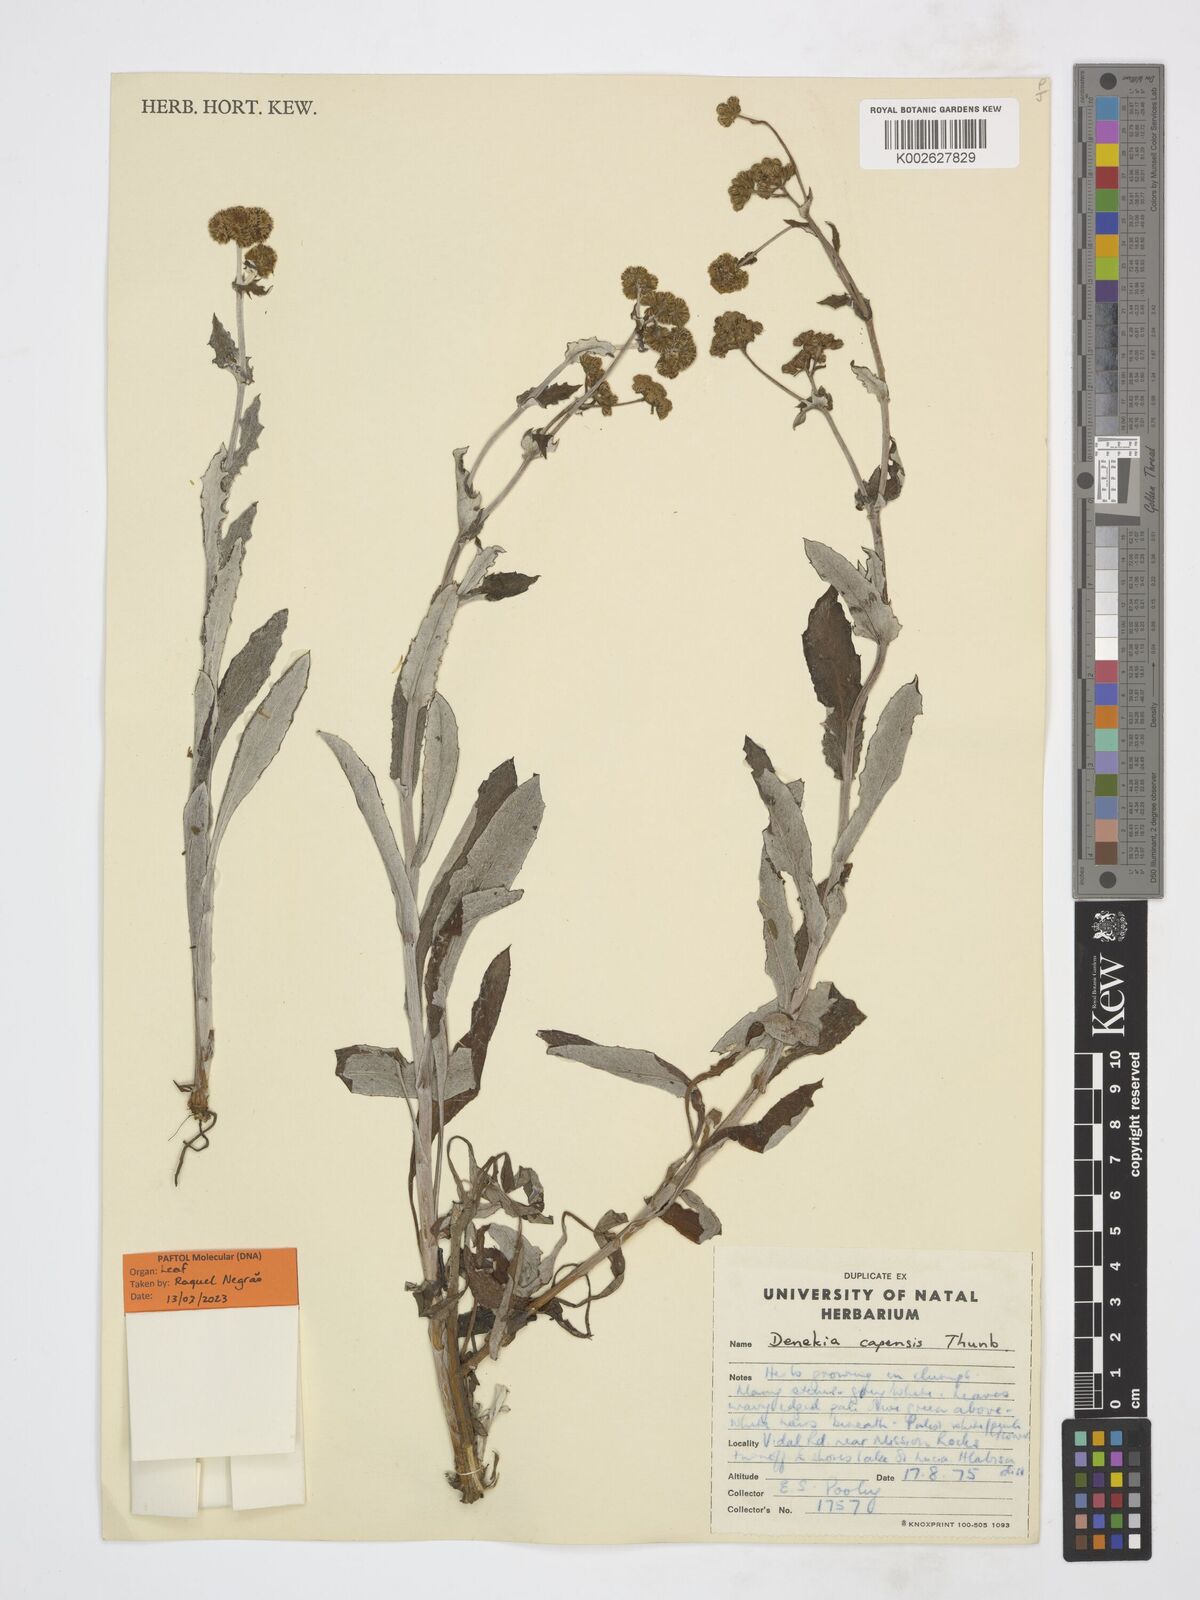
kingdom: Plantae
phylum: Tracheophyta
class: Magnoliopsida
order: Asterales
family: Asteraceae
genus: Denekia
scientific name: Denekia capensis
